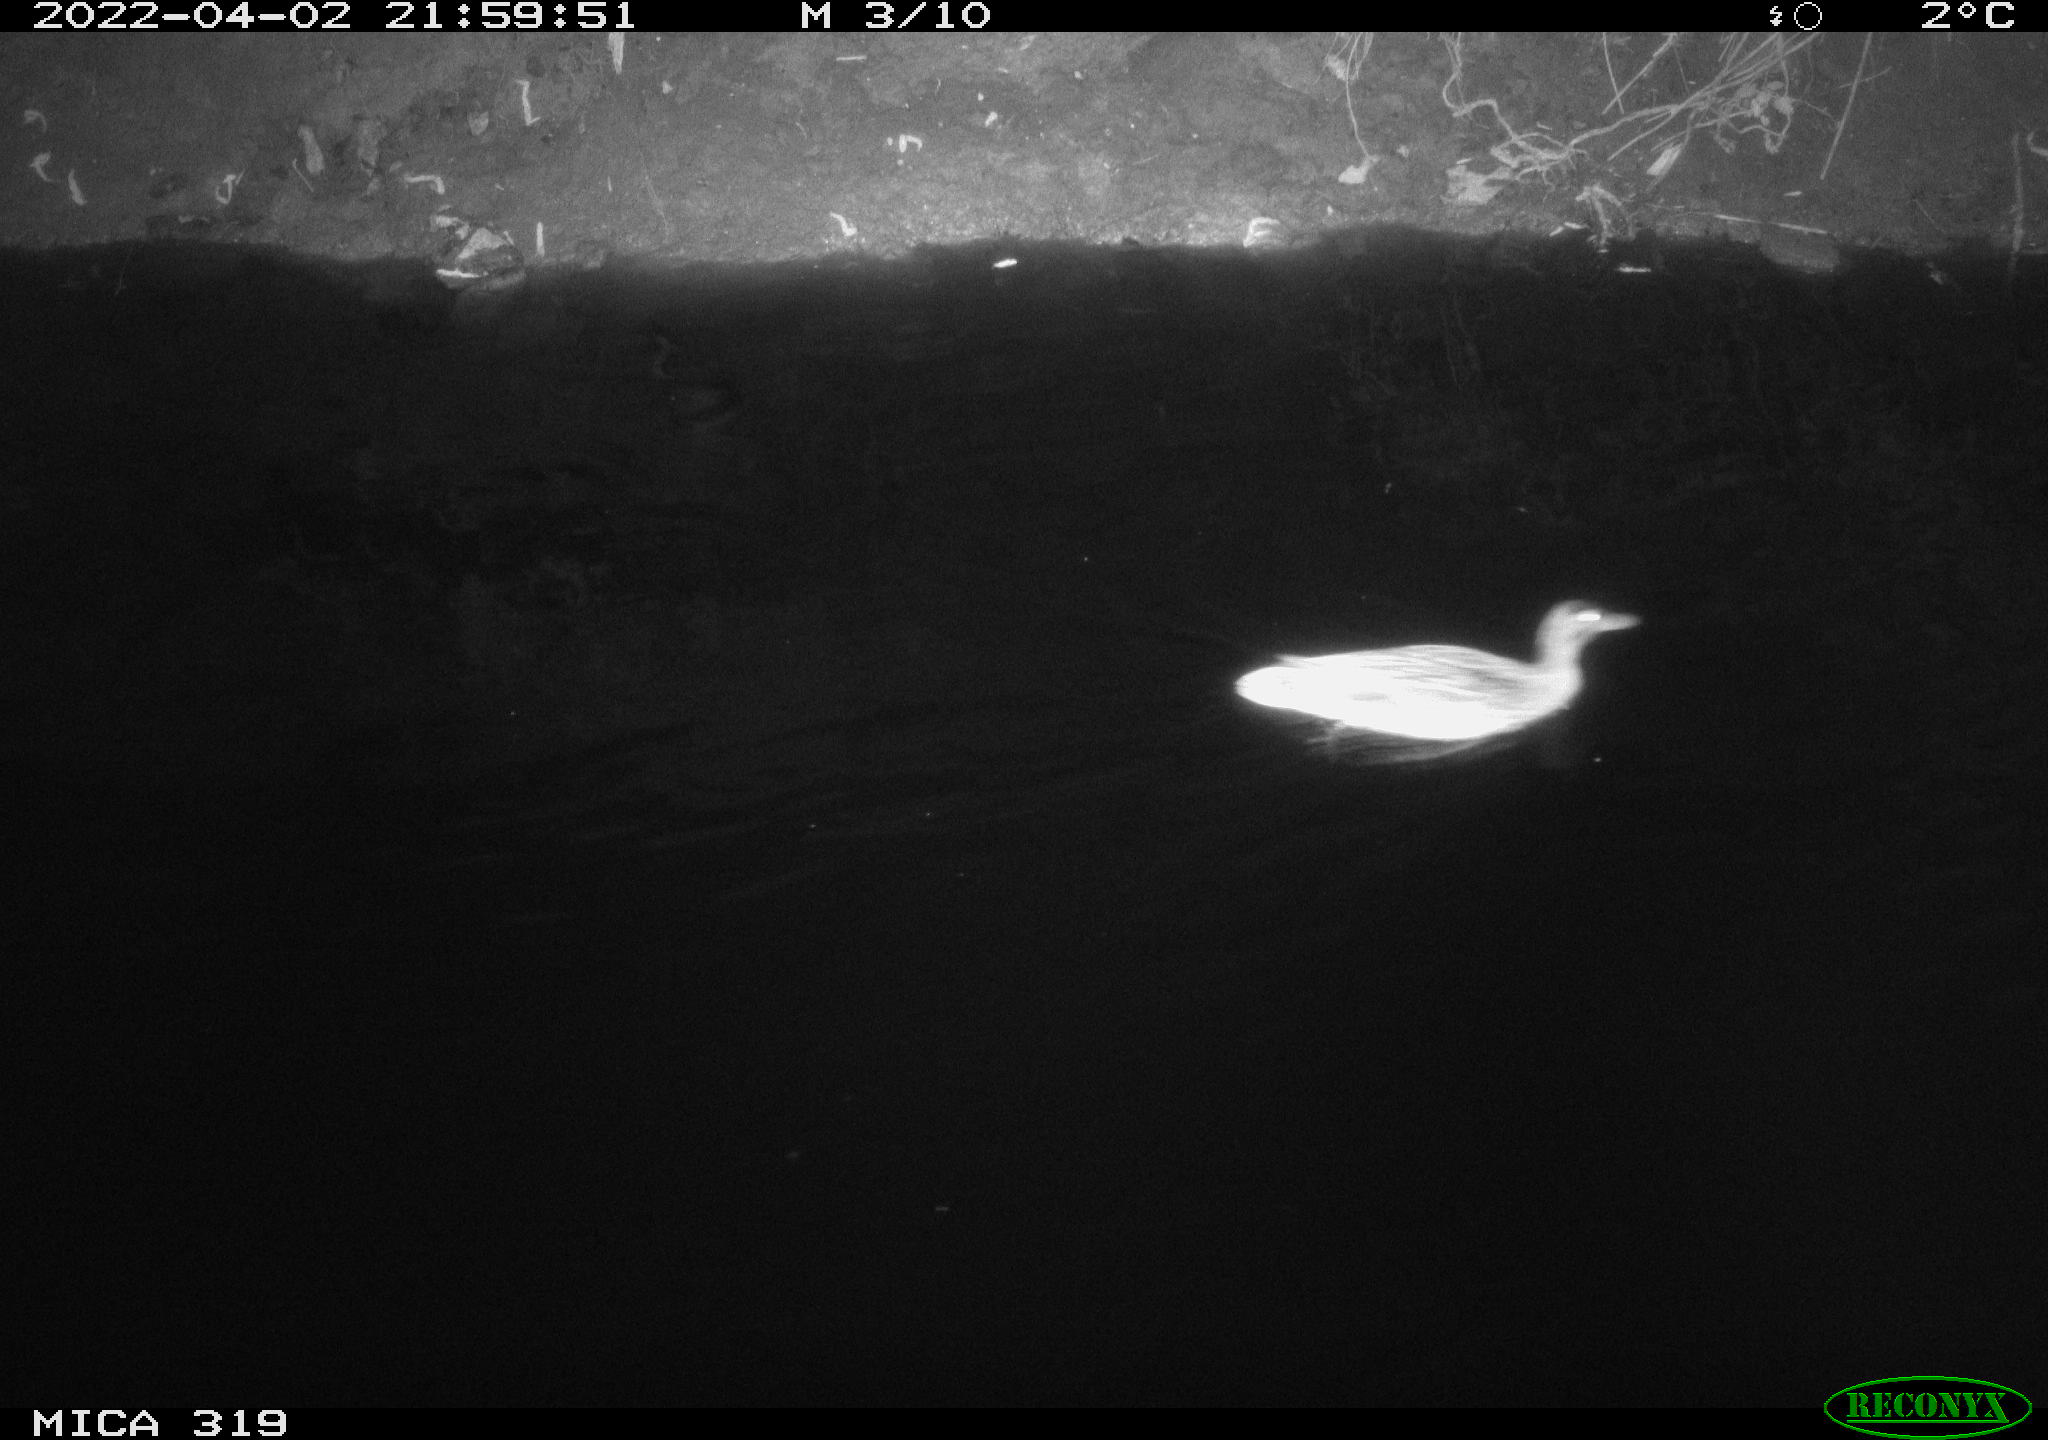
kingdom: Animalia
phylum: Chordata
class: Aves
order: Anseriformes
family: Anatidae
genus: Anas
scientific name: Anas platyrhynchos
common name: Mallard
